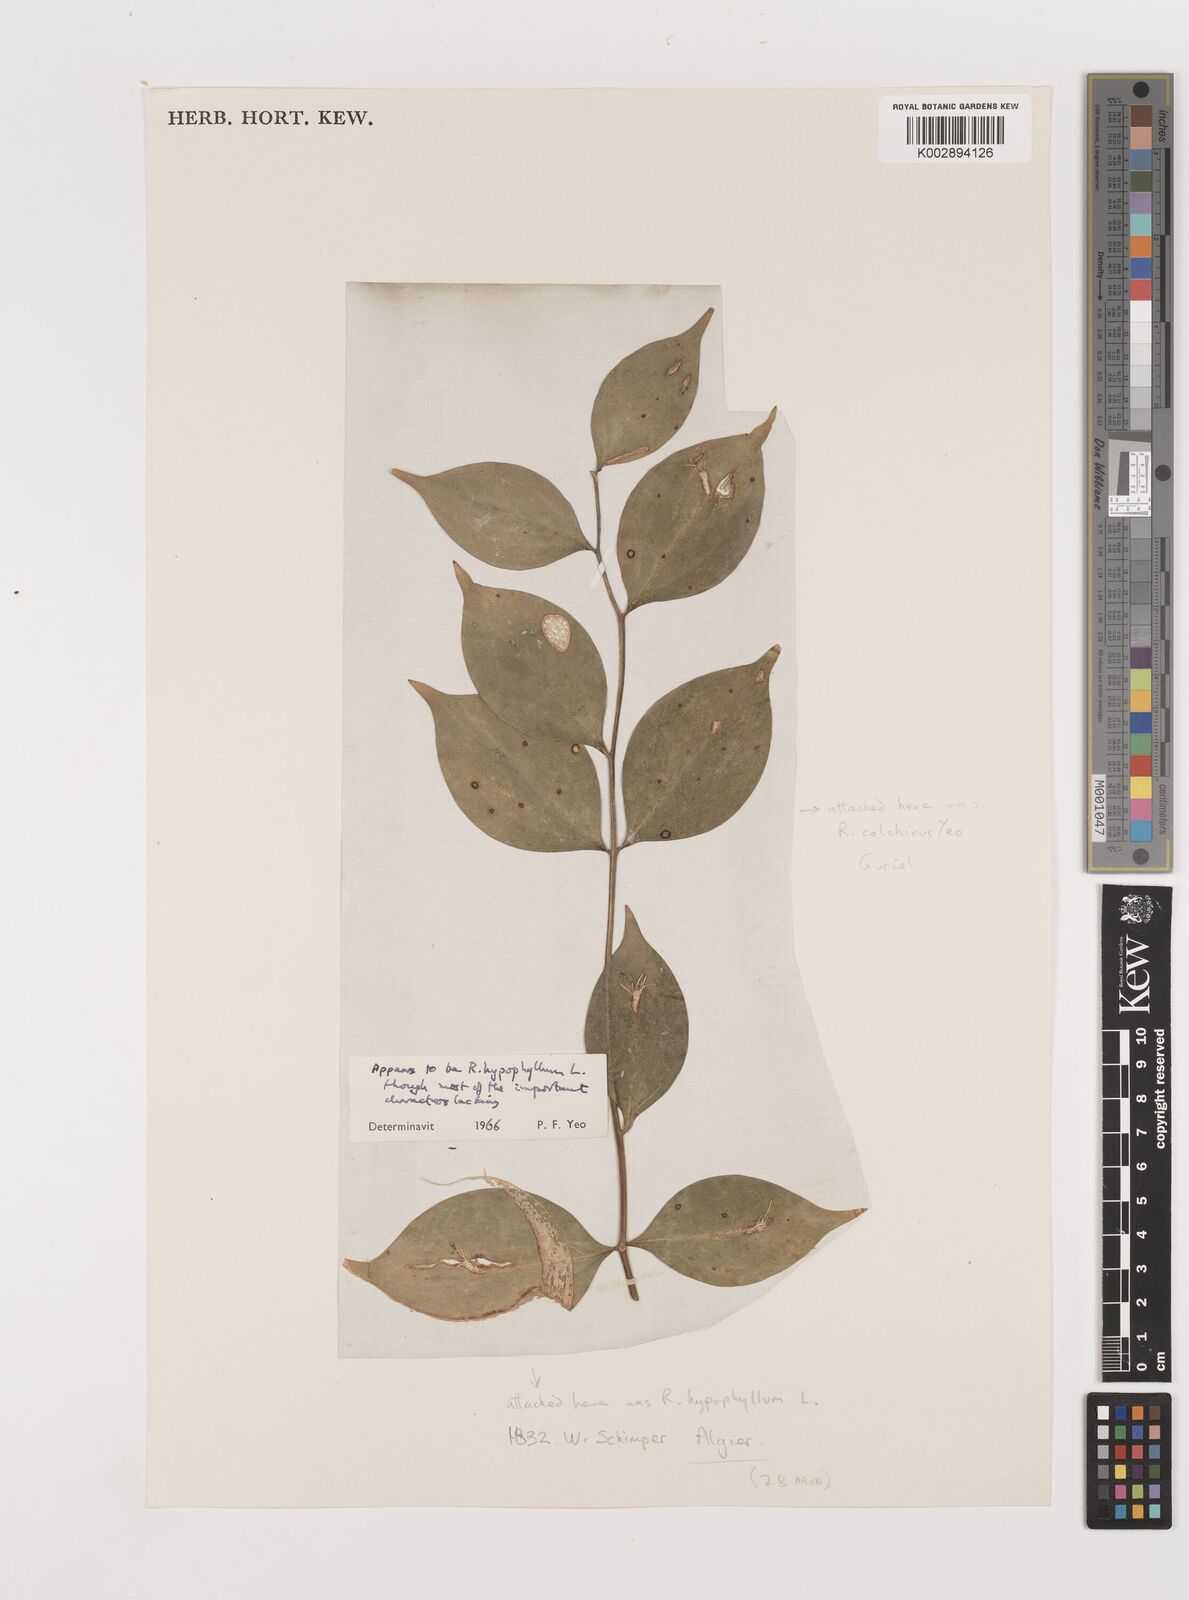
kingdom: Plantae
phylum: Tracheophyta
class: Liliopsida
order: Asparagales
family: Asparagaceae
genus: Ruscus
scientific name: Ruscus hypophyllum
